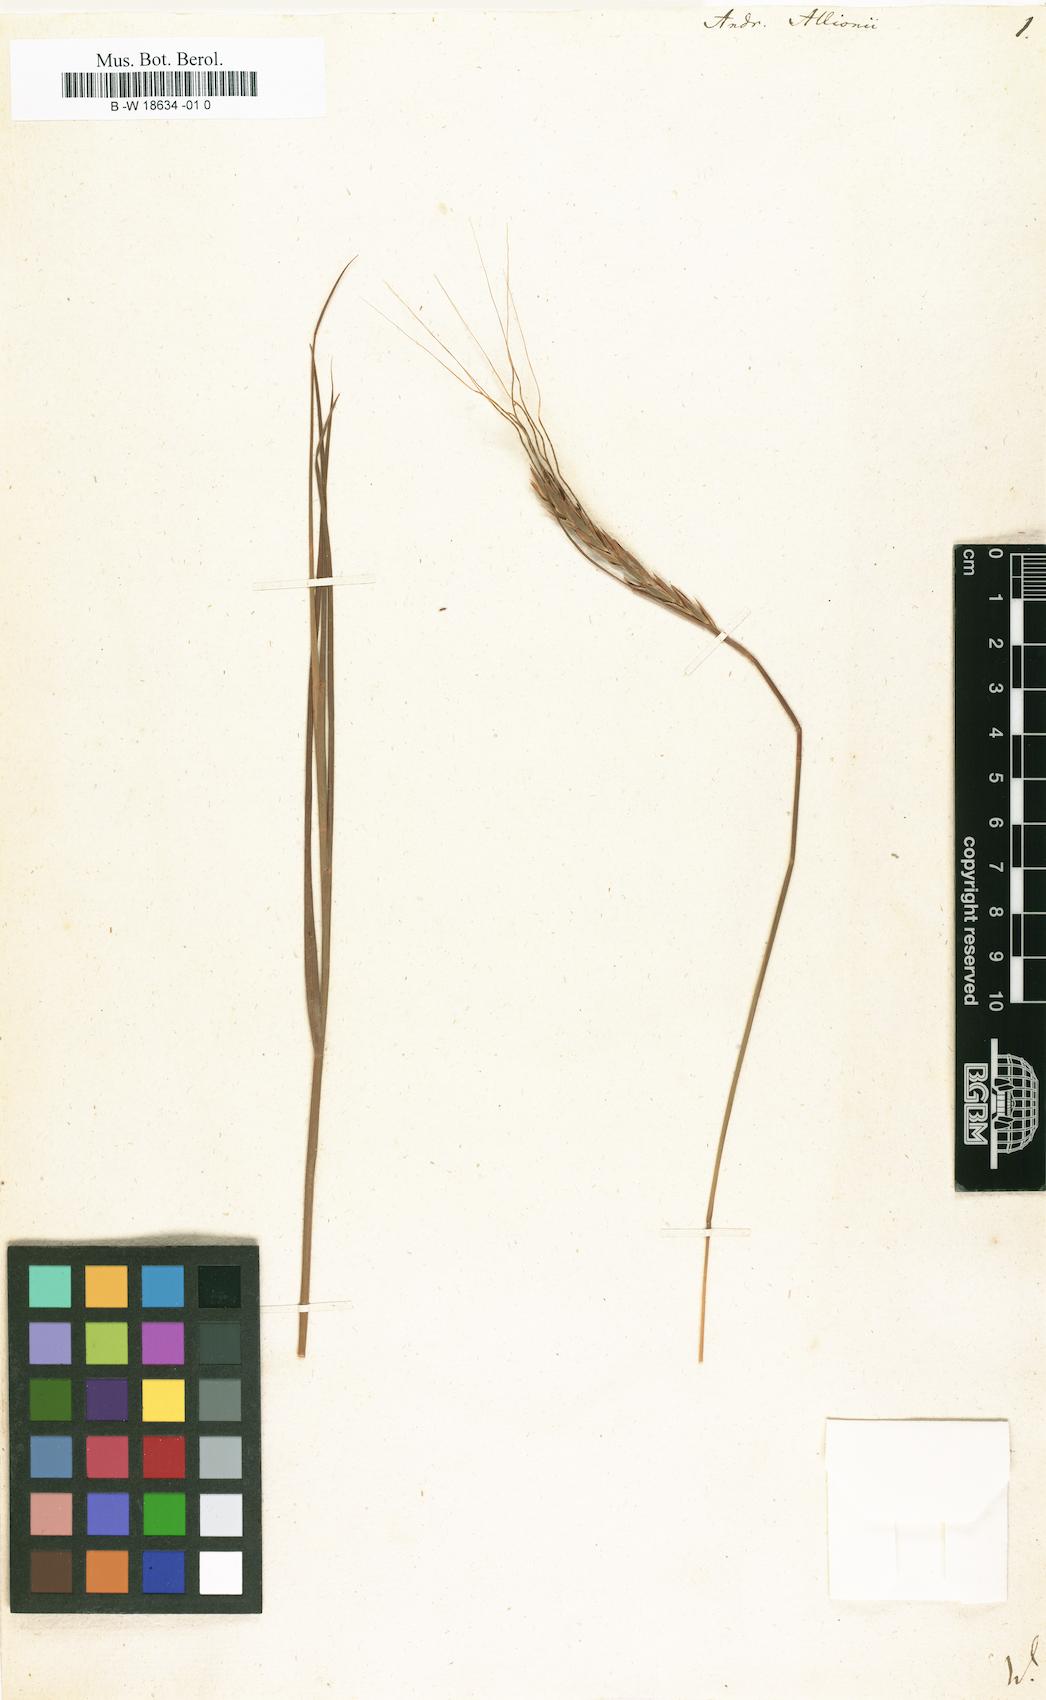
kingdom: Plantae
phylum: Tracheophyta
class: Liliopsida
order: Poales
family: Poaceae
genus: Heteropogon
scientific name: Heteropogon contortus
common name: Tanglehead
